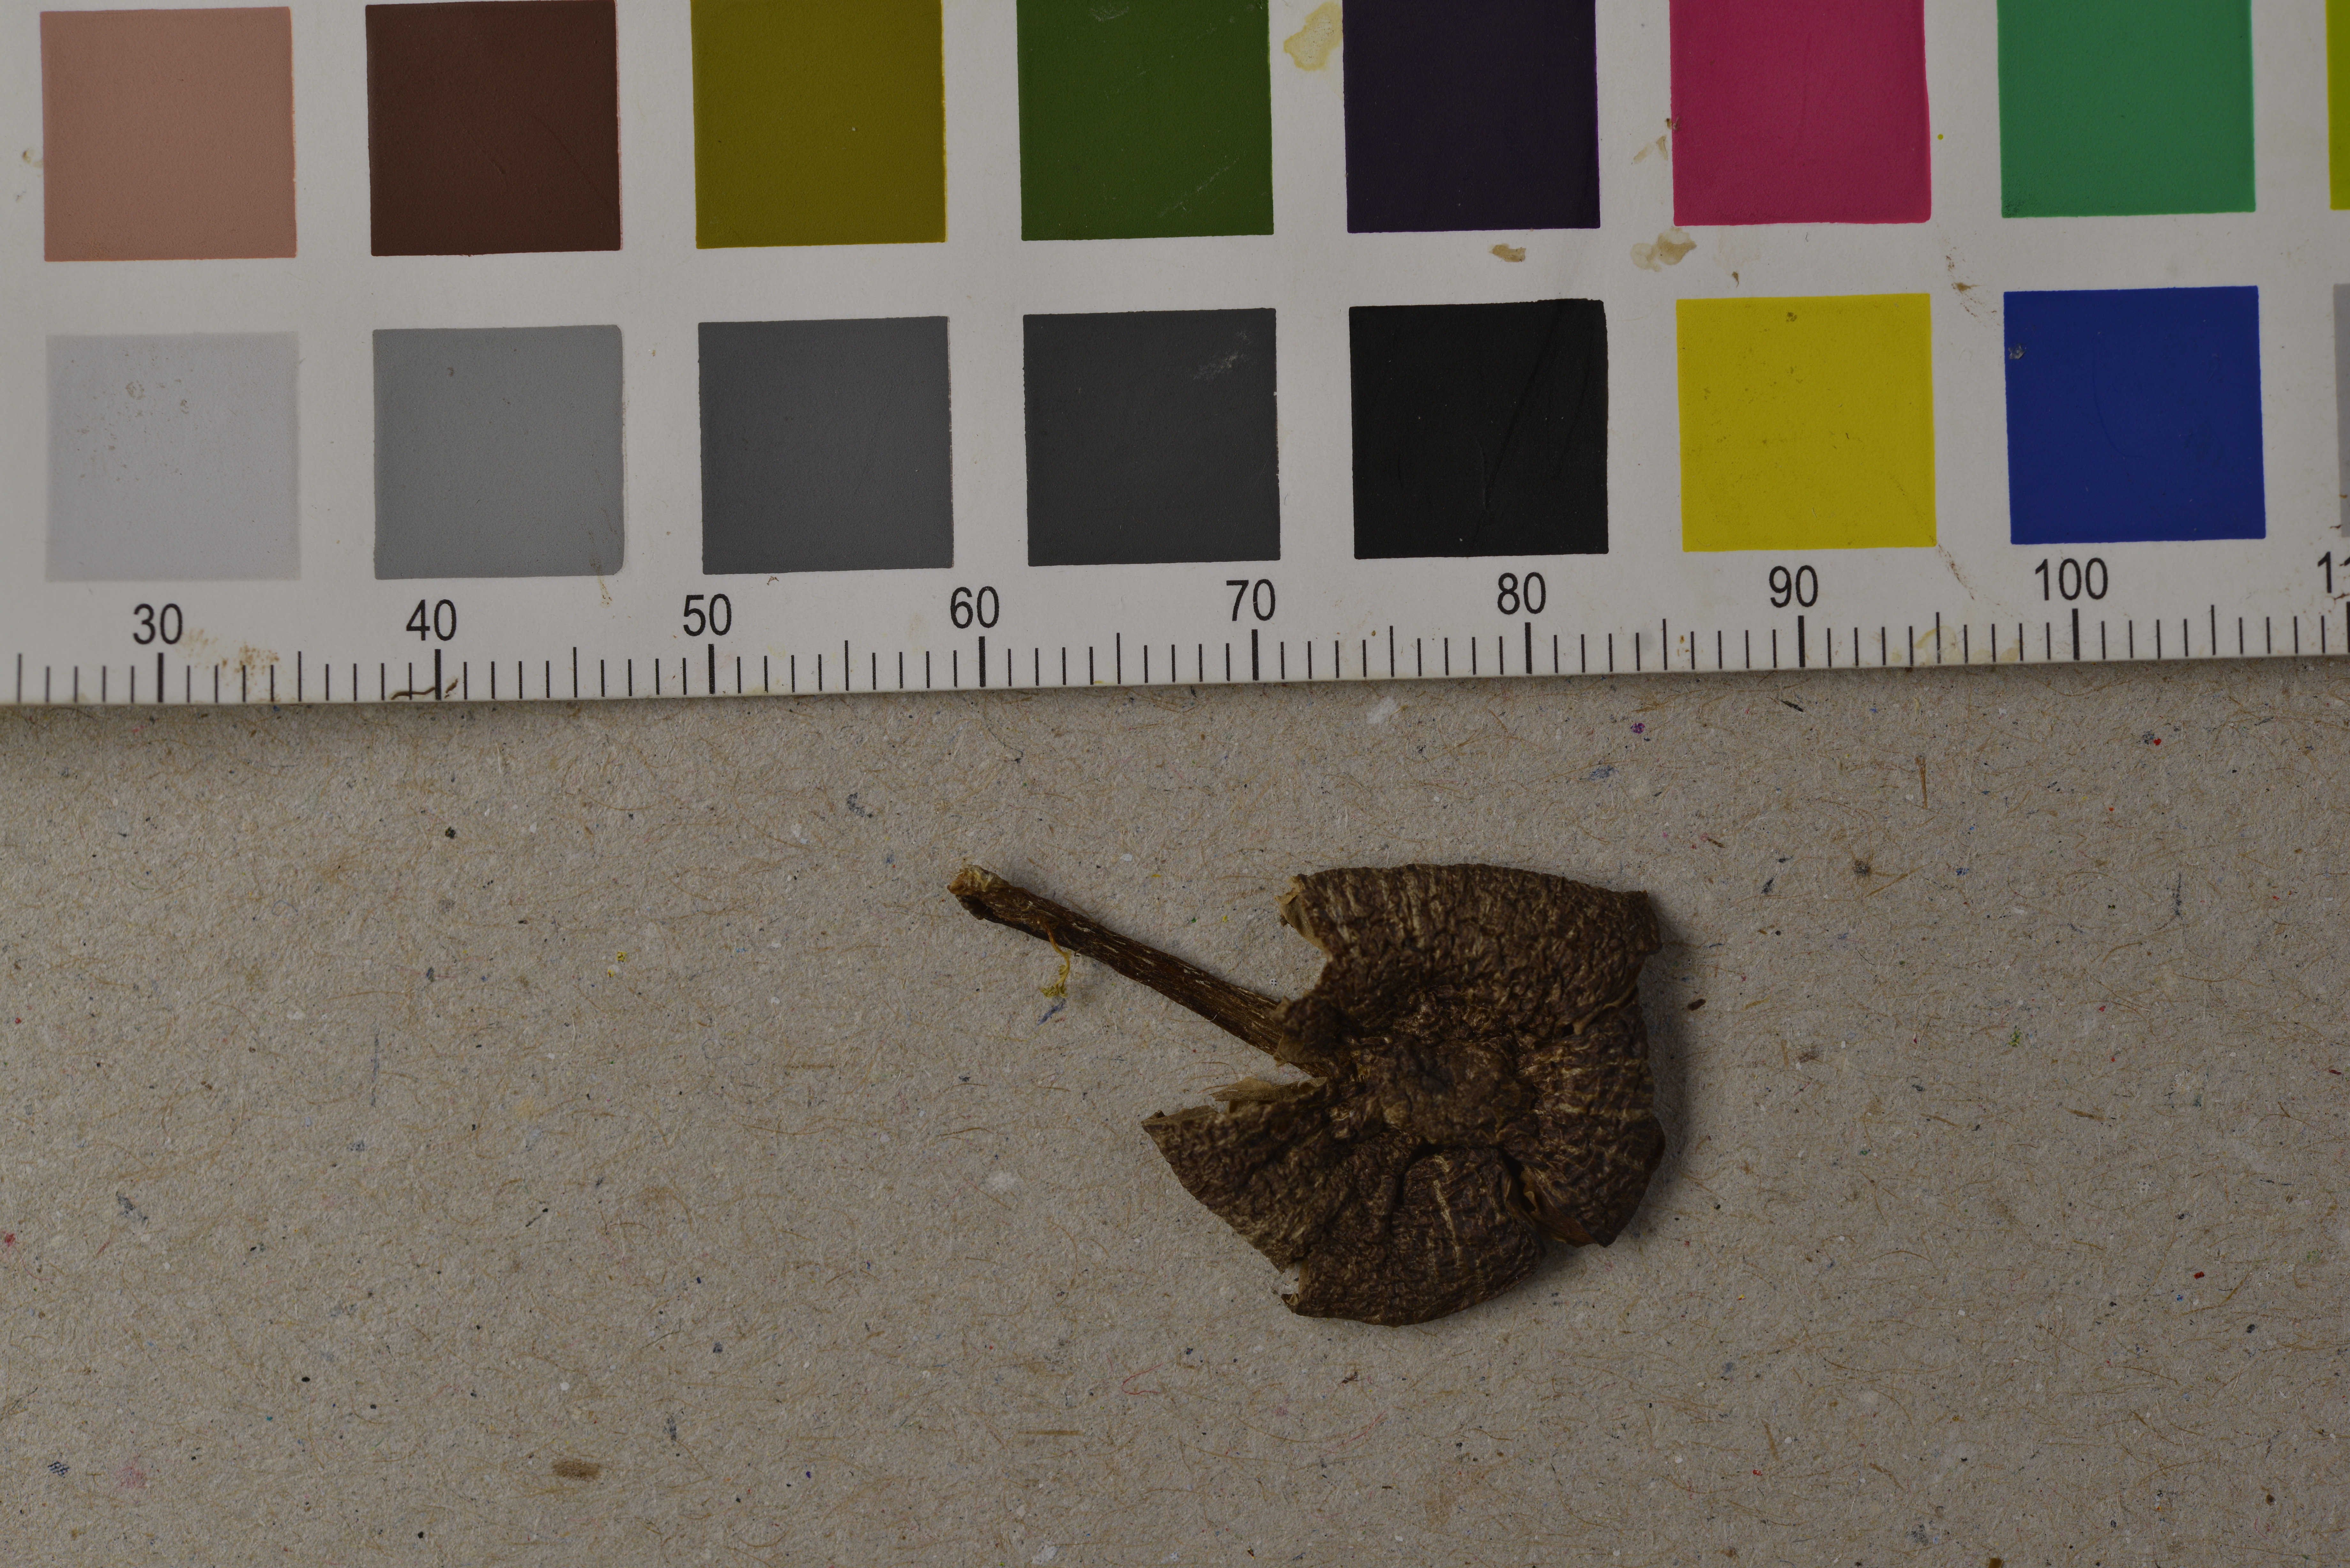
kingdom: Fungi
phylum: Basidiomycota
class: Agaricomycetes
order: Agaricales
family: Entolomataceae
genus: Entoloma
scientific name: Entoloma undulatosporum
